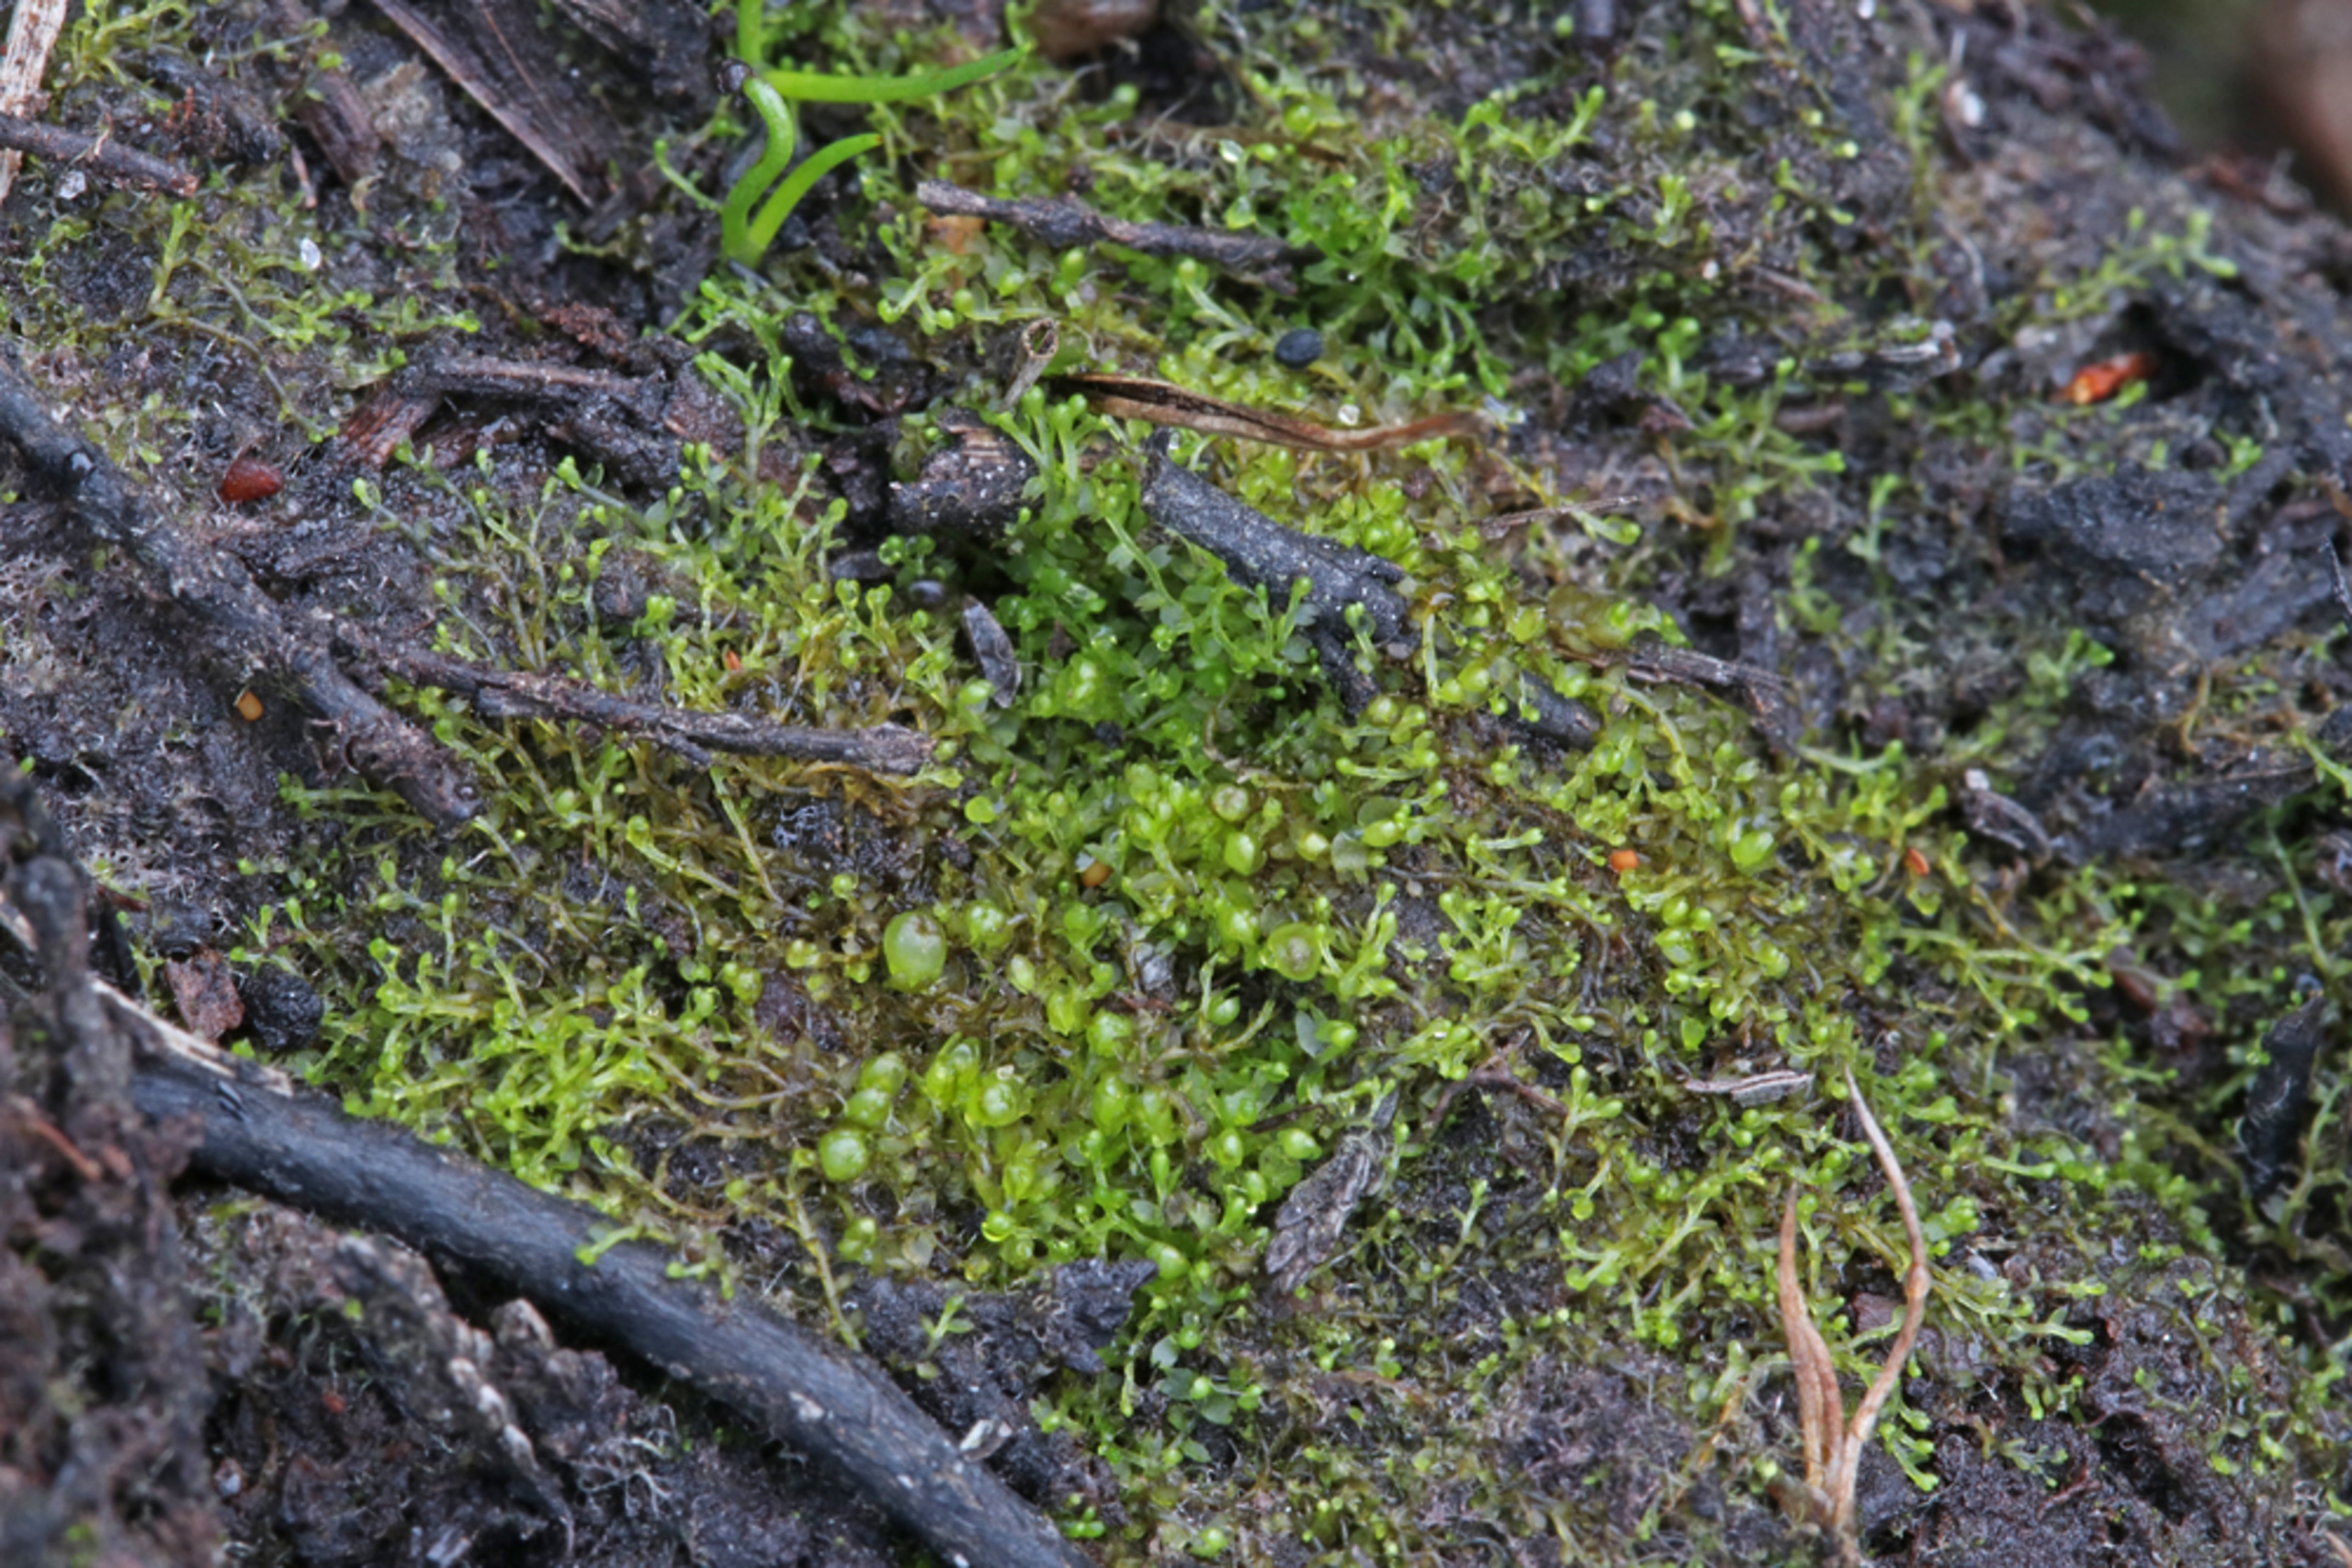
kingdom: Plantae
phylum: Marchantiophyta
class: Jungermanniopsida
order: Jungermanniales
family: Anastrophyllaceae
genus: Gymnocolea
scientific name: Gymnocolea inflata
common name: Opblæst blæremos
